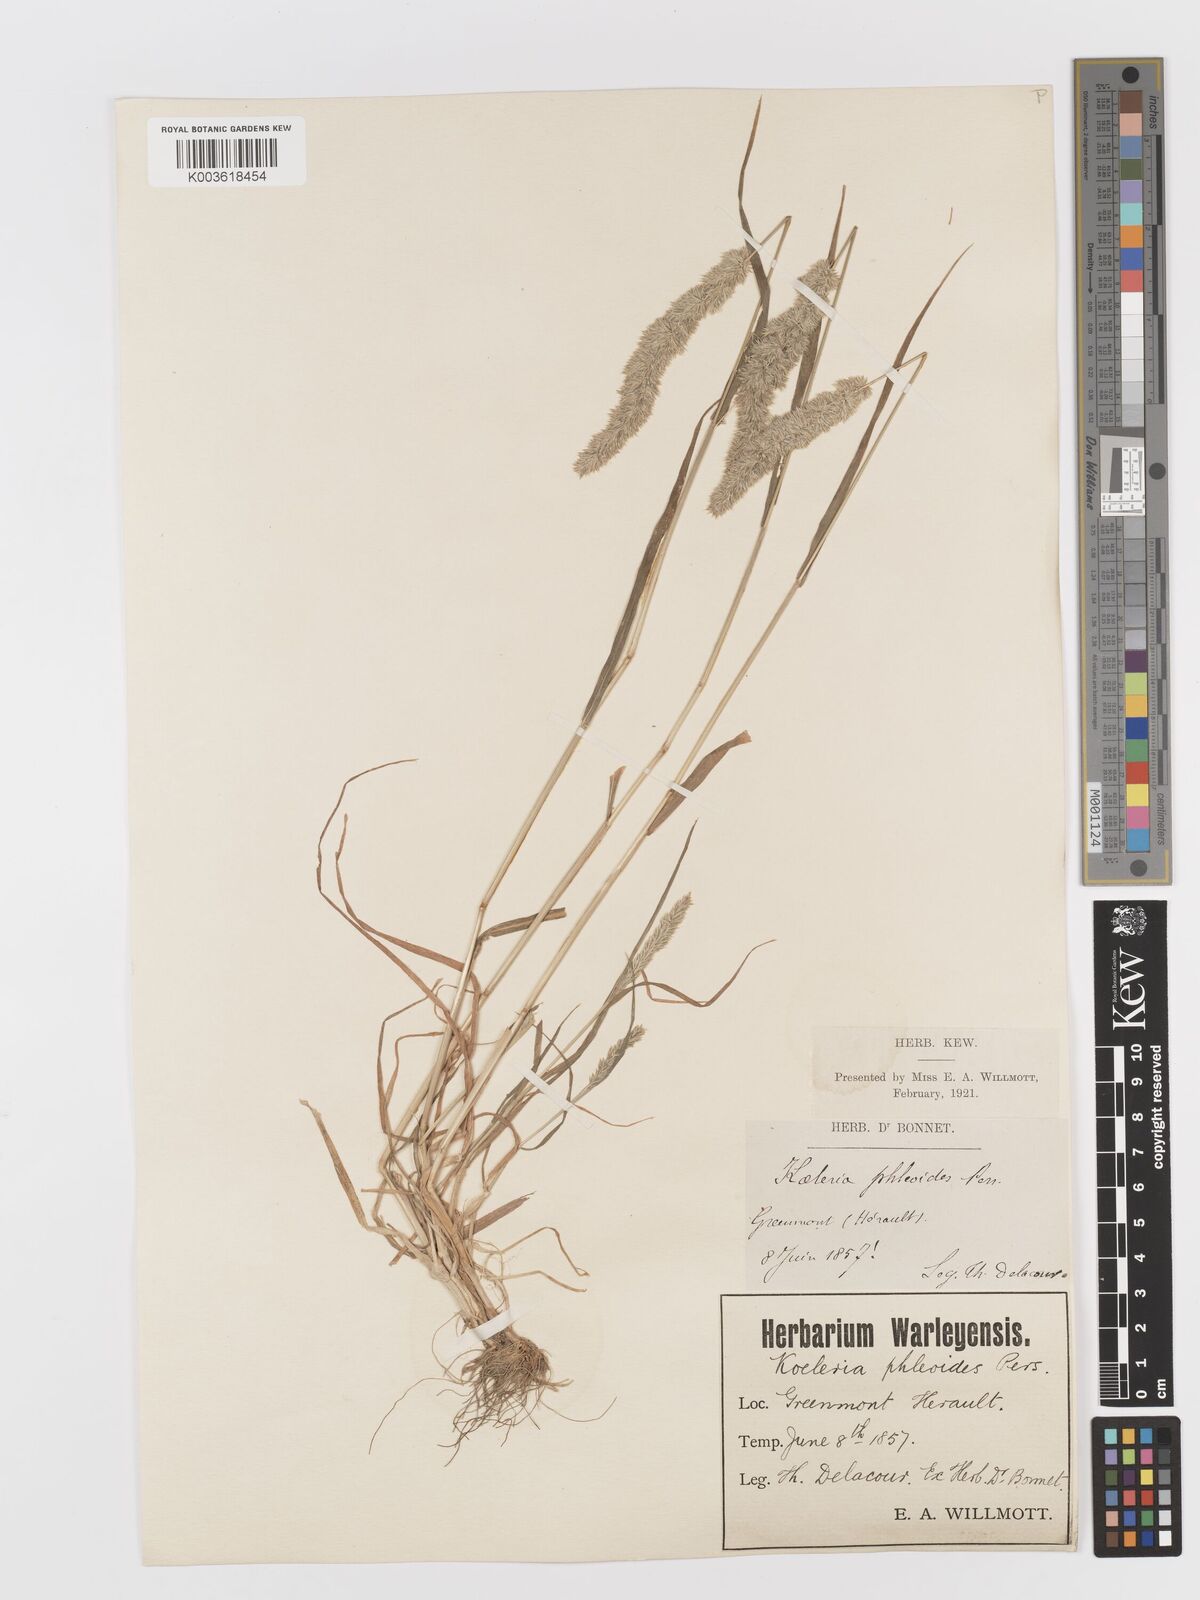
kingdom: Plantae
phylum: Tracheophyta
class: Liliopsida
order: Poales
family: Poaceae
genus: Rostraria
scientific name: Rostraria cristata
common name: Mediterranean hair-grass
